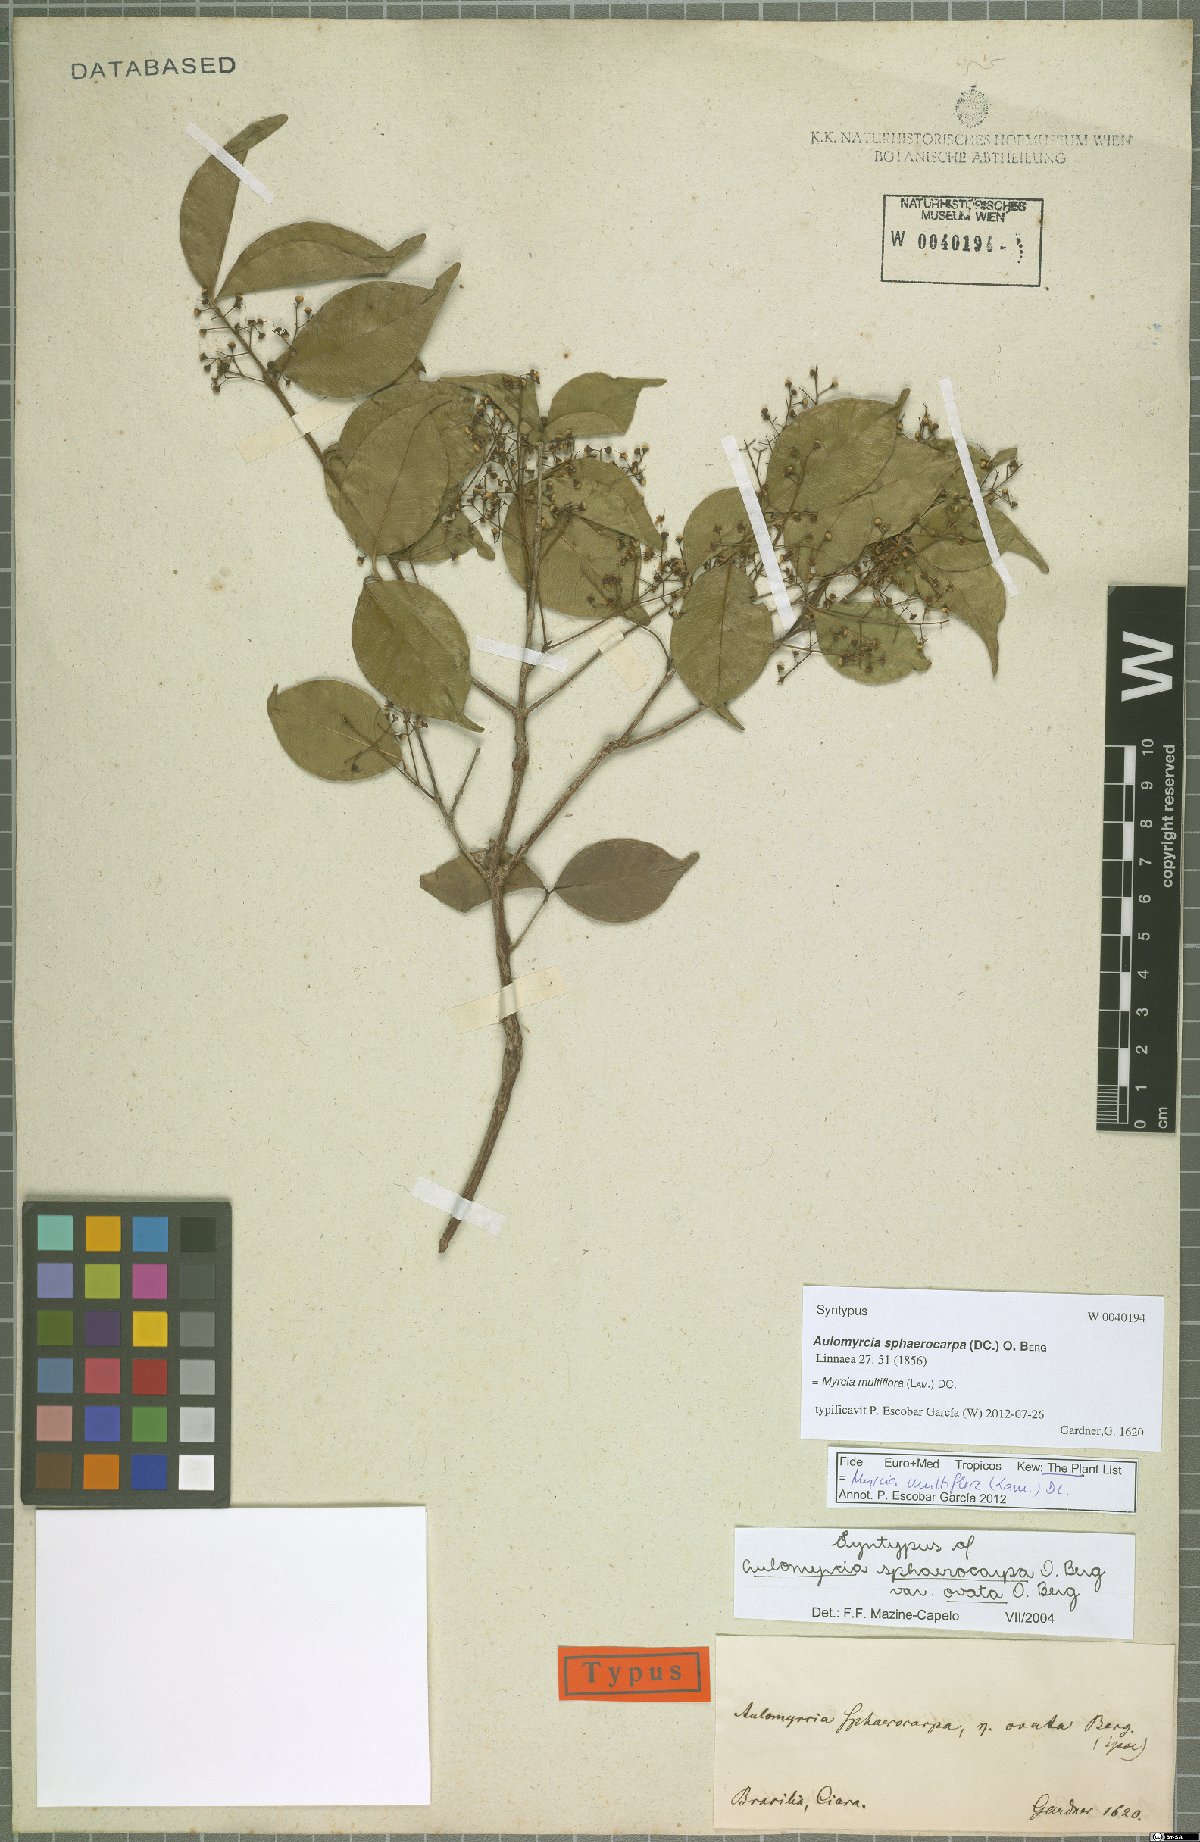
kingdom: Plantae
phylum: Tracheophyta
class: Magnoliopsida
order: Myrtales
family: Myrtaceae
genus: Myrcia
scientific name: Myrcia multiflora
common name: Pedra hume
